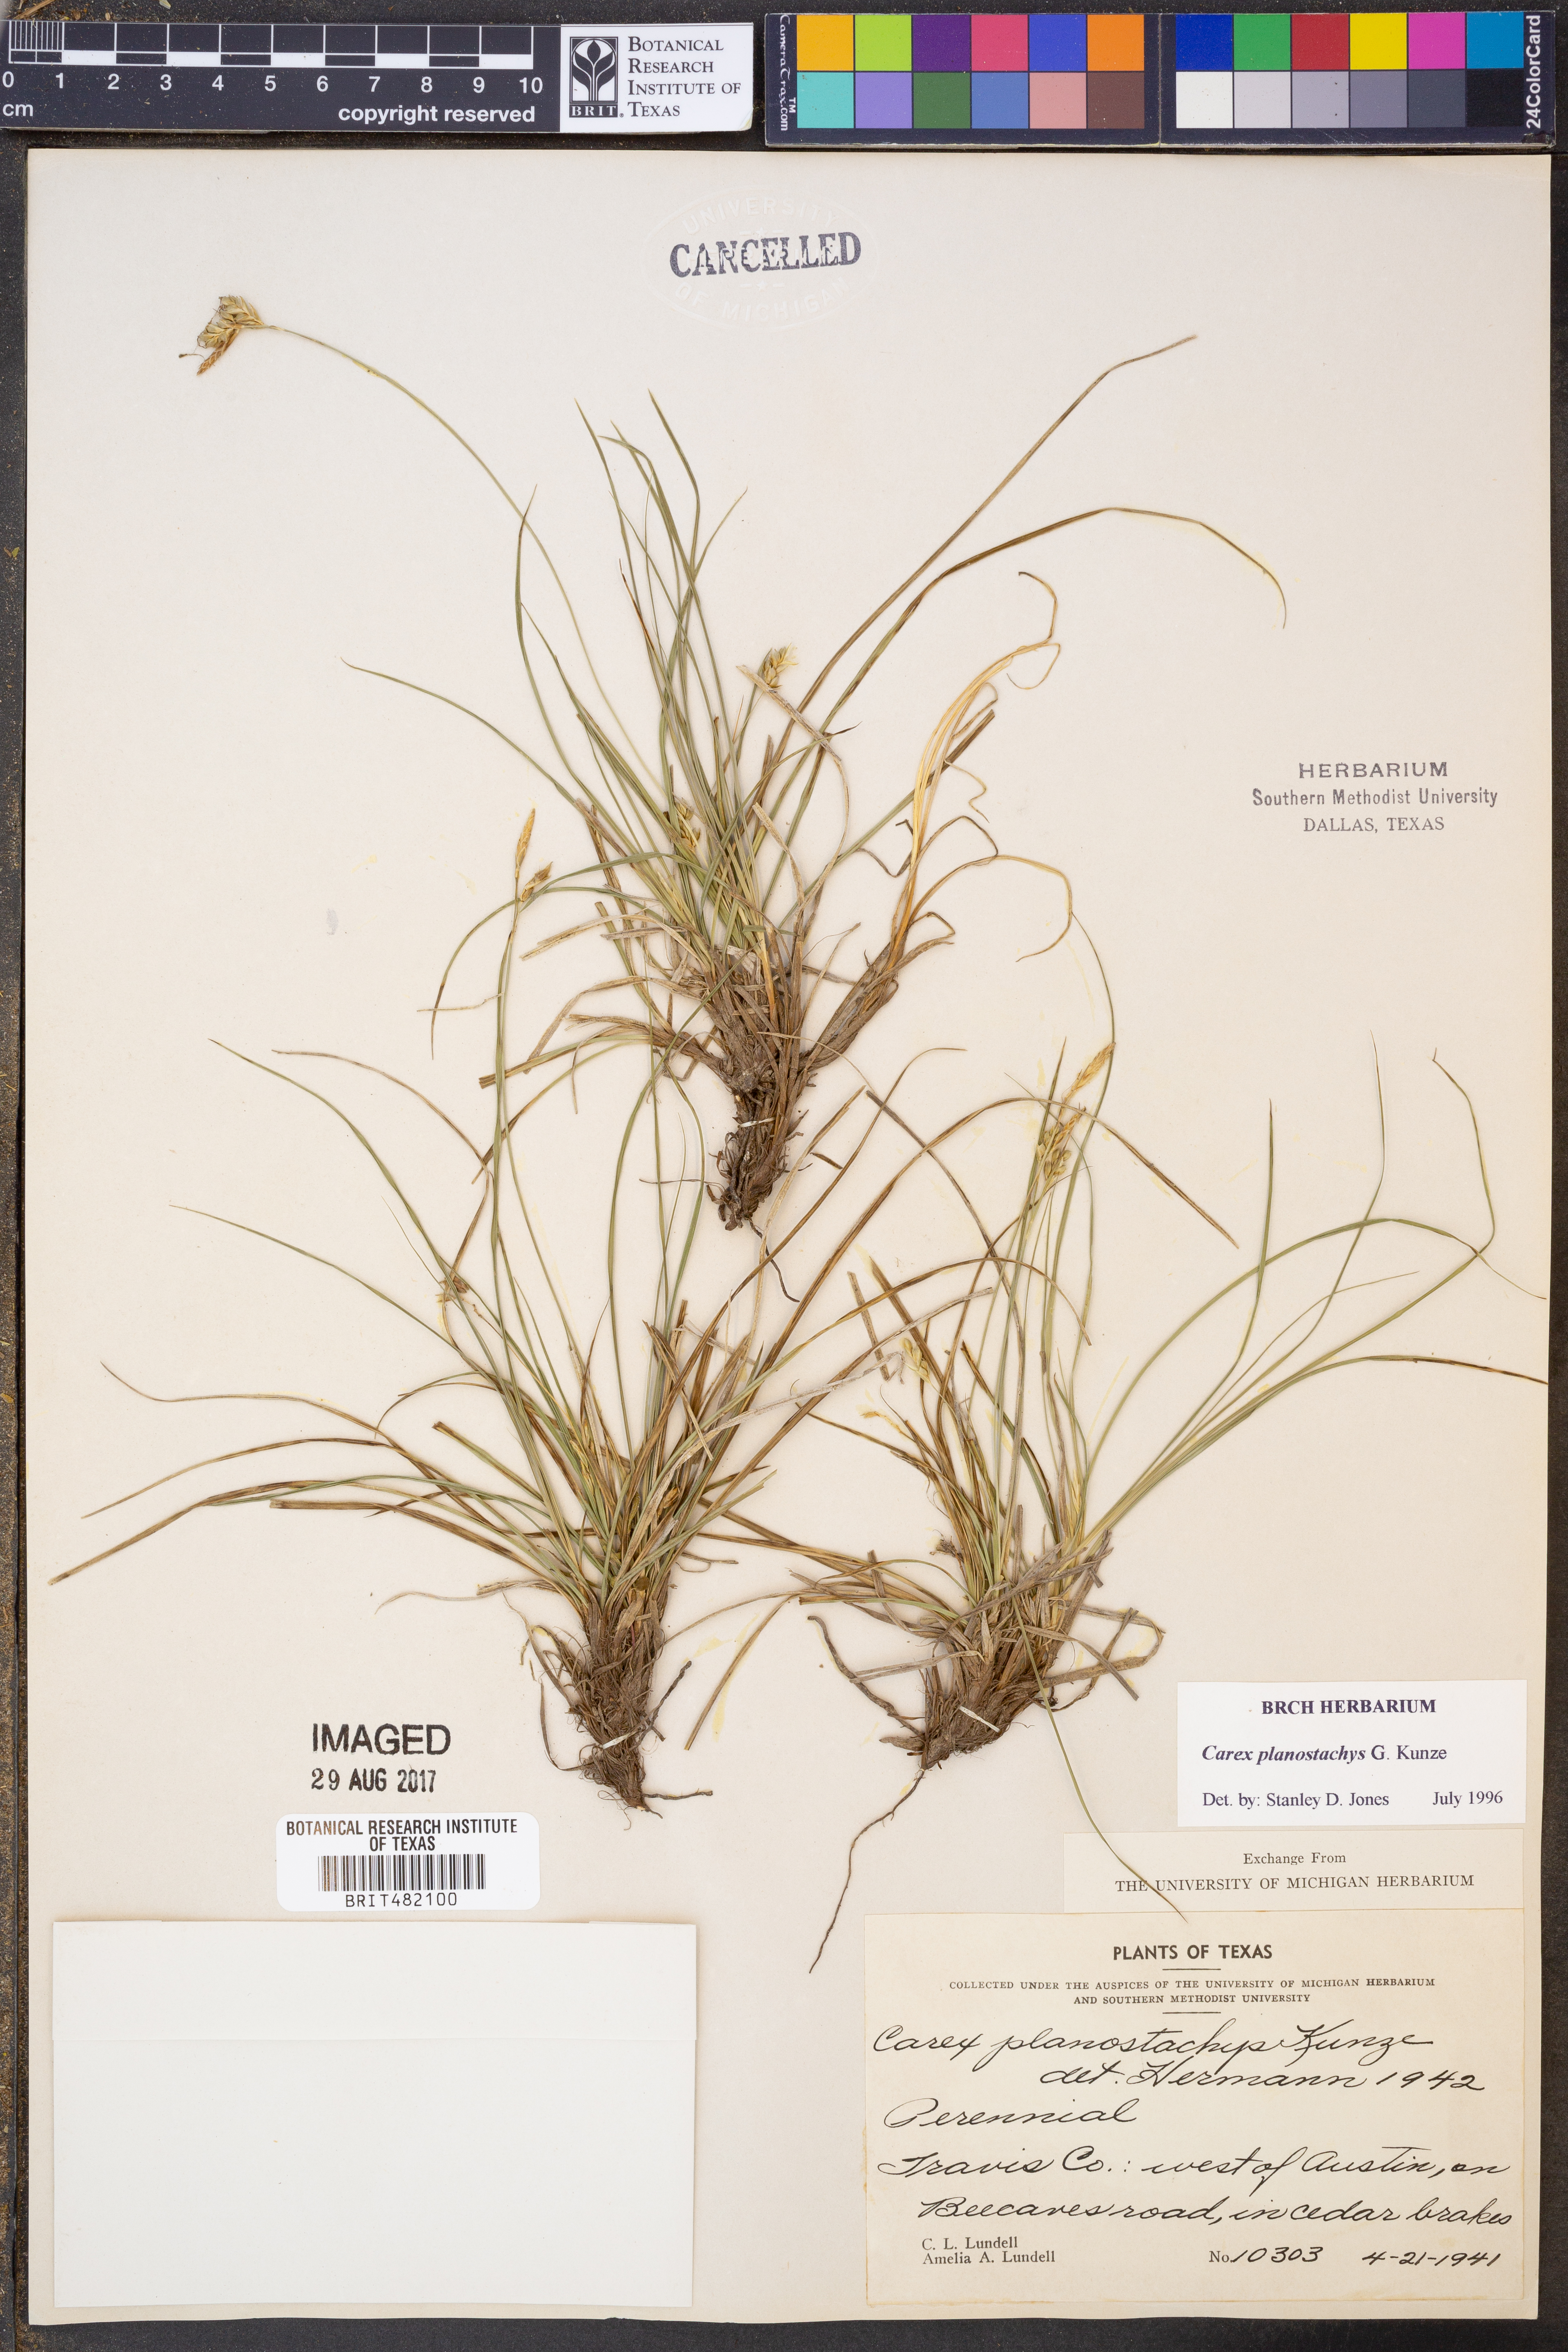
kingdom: Plantae
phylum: Tracheophyta
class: Liliopsida
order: Poales
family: Cyperaceae
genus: Carex
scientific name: Carex planostachys
